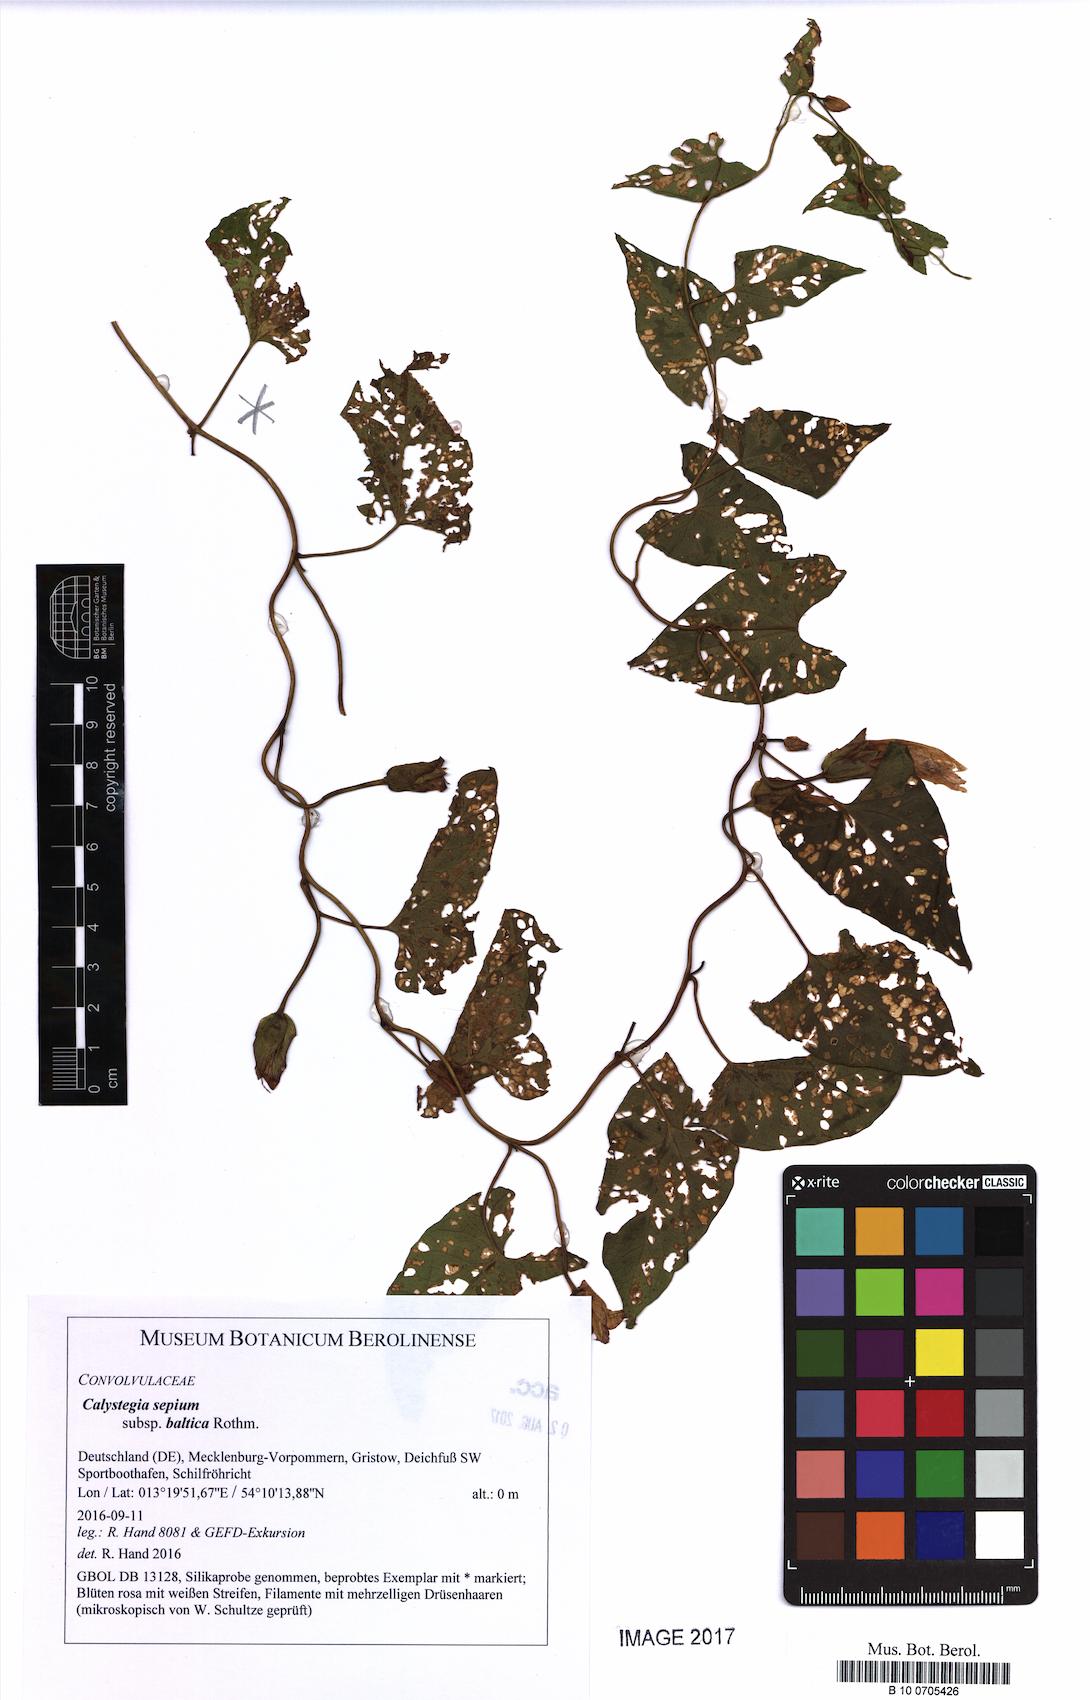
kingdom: Plantae
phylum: Tracheophyta
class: Magnoliopsida
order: Solanales
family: Convolvulaceae
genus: Calystegia
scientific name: Calystegia sepium
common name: Hedge bindweed
